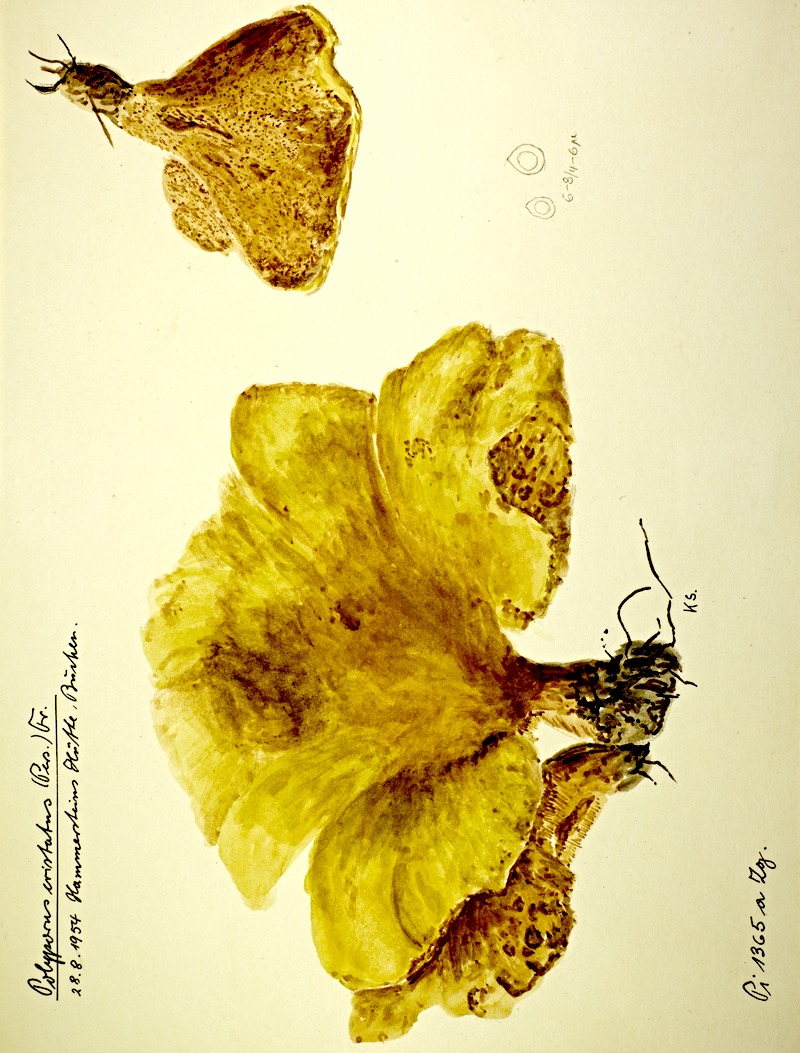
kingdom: Fungi
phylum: Basidiomycota
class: Agaricomycetes
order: Russulales
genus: Laeticutis
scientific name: Laeticutis cristata
